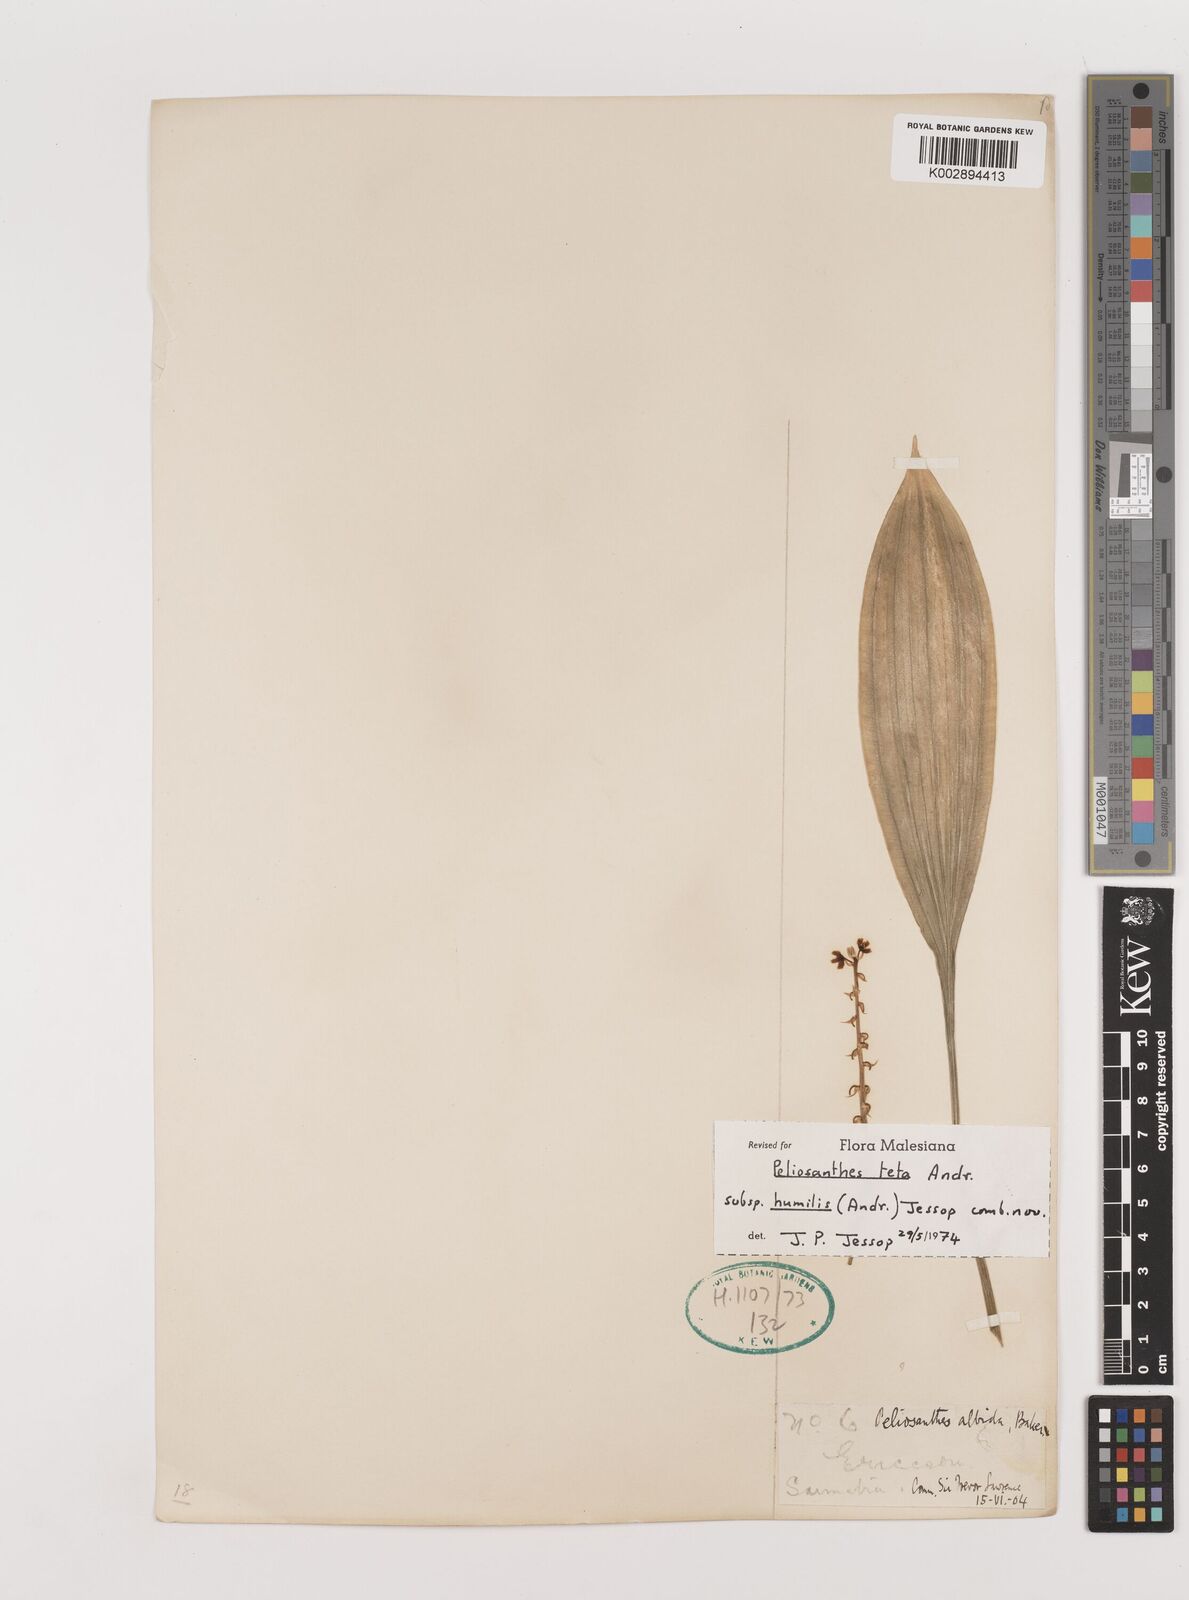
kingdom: Plantae
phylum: Tracheophyta
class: Liliopsida
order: Asparagales
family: Asparagaceae
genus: Peliosanthes
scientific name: Peliosanthes teta
